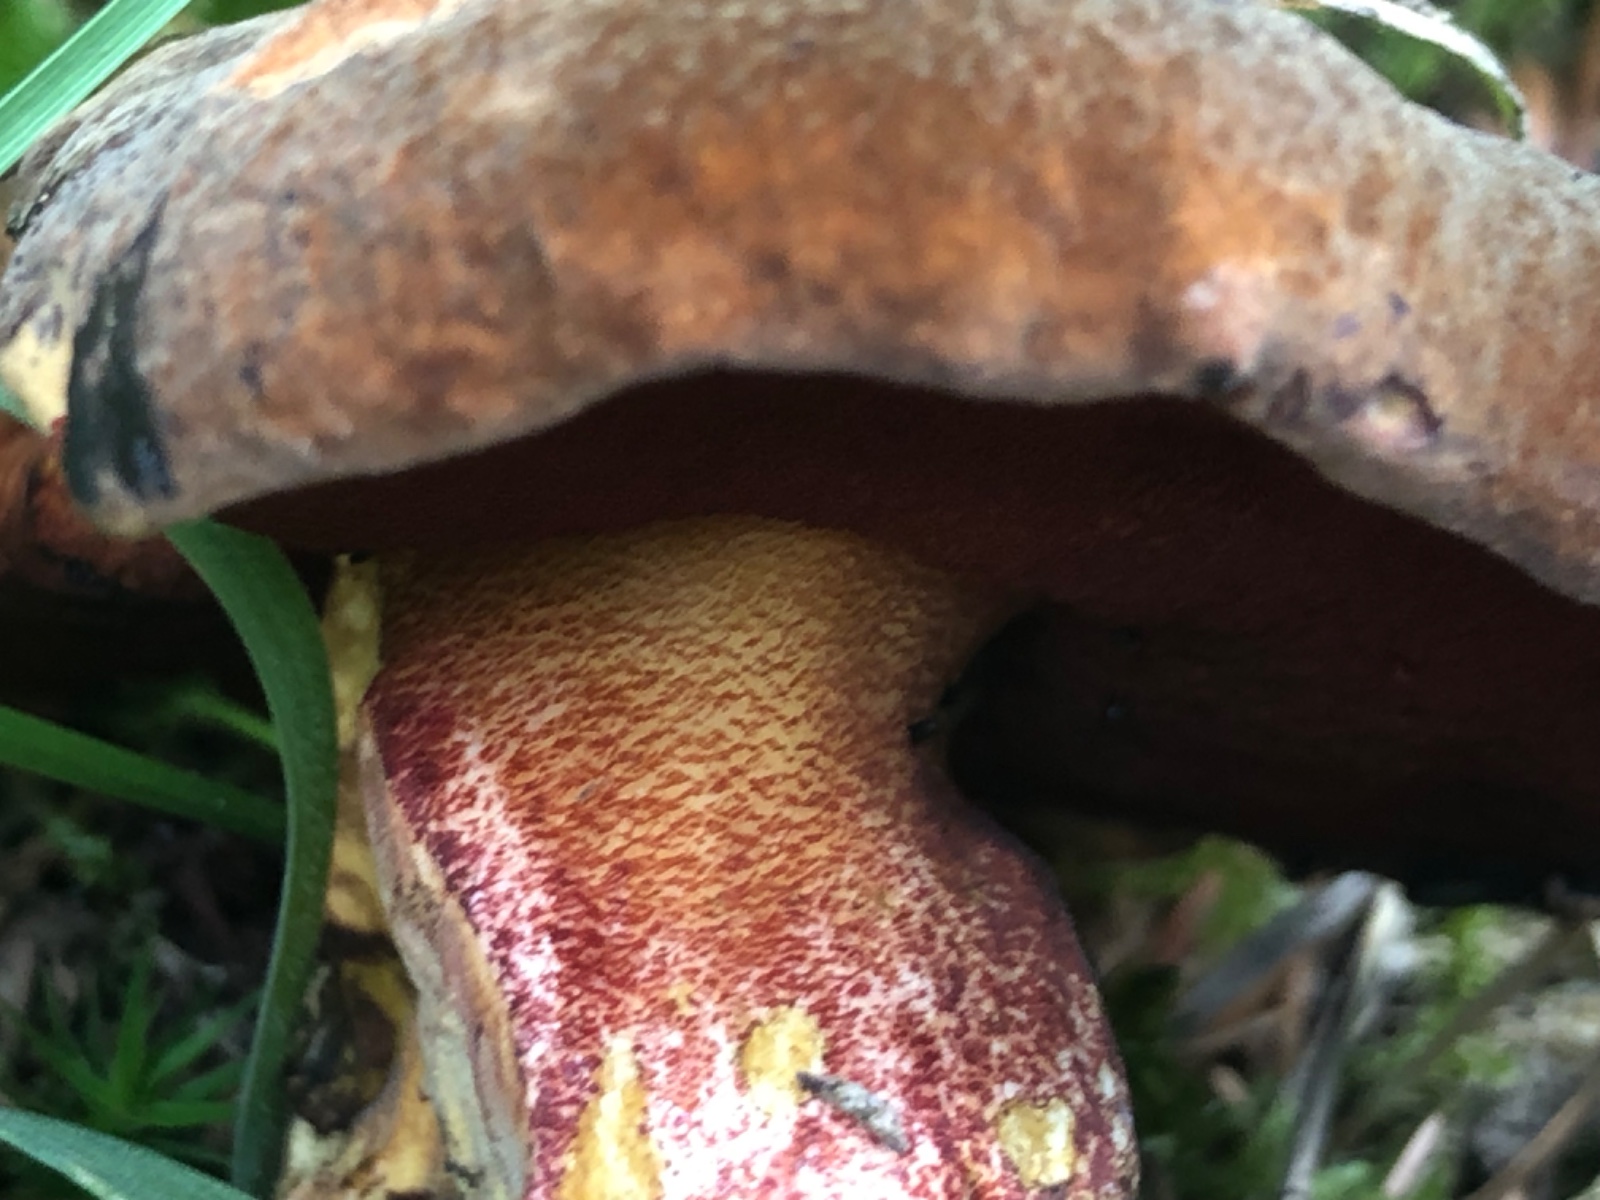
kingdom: Fungi
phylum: Basidiomycota
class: Agaricomycetes
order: Boletales
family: Boletaceae
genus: Neoboletus
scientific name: Neoboletus erythropus
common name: punktstokket indigorørhat
